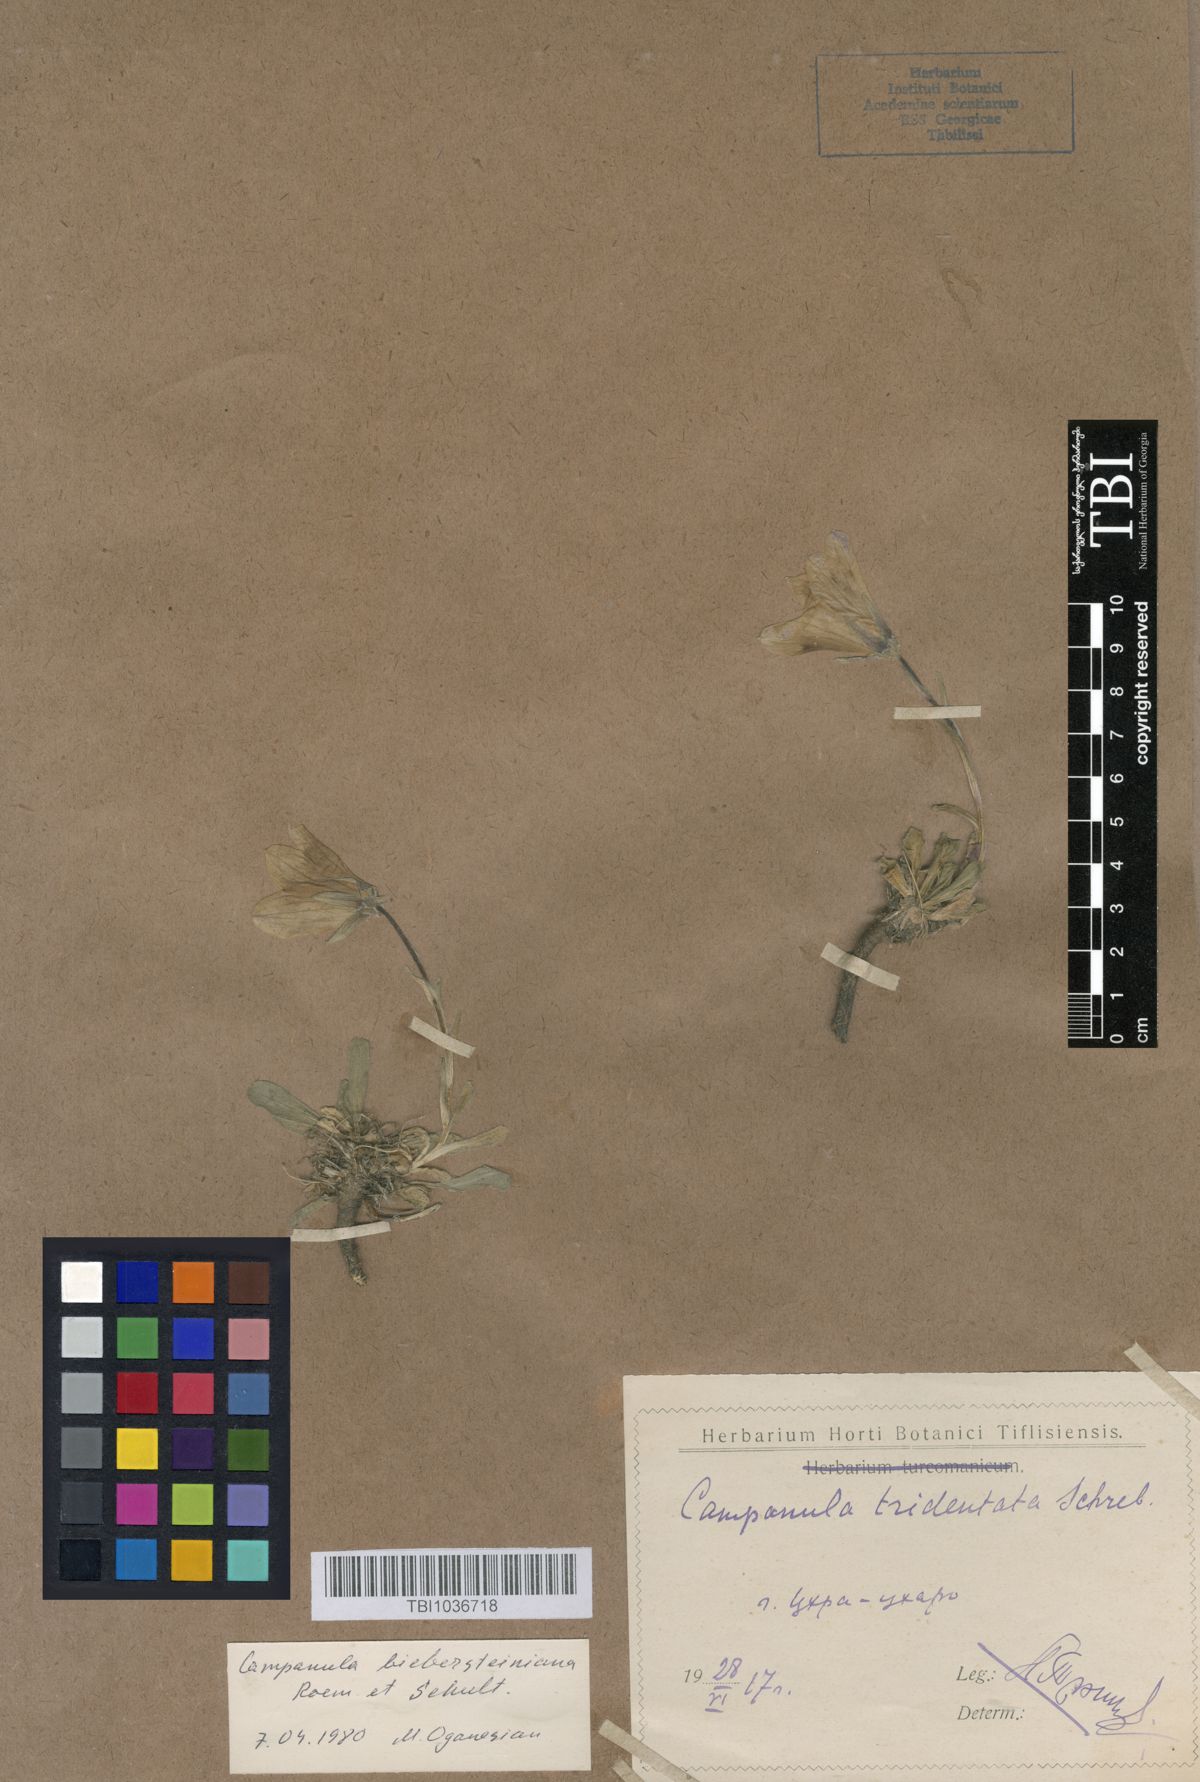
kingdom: Plantae
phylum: Tracheophyta
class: Magnoliopsida
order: Asterales
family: Campanulaceae
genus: Campanula
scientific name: Campanula tridentata
